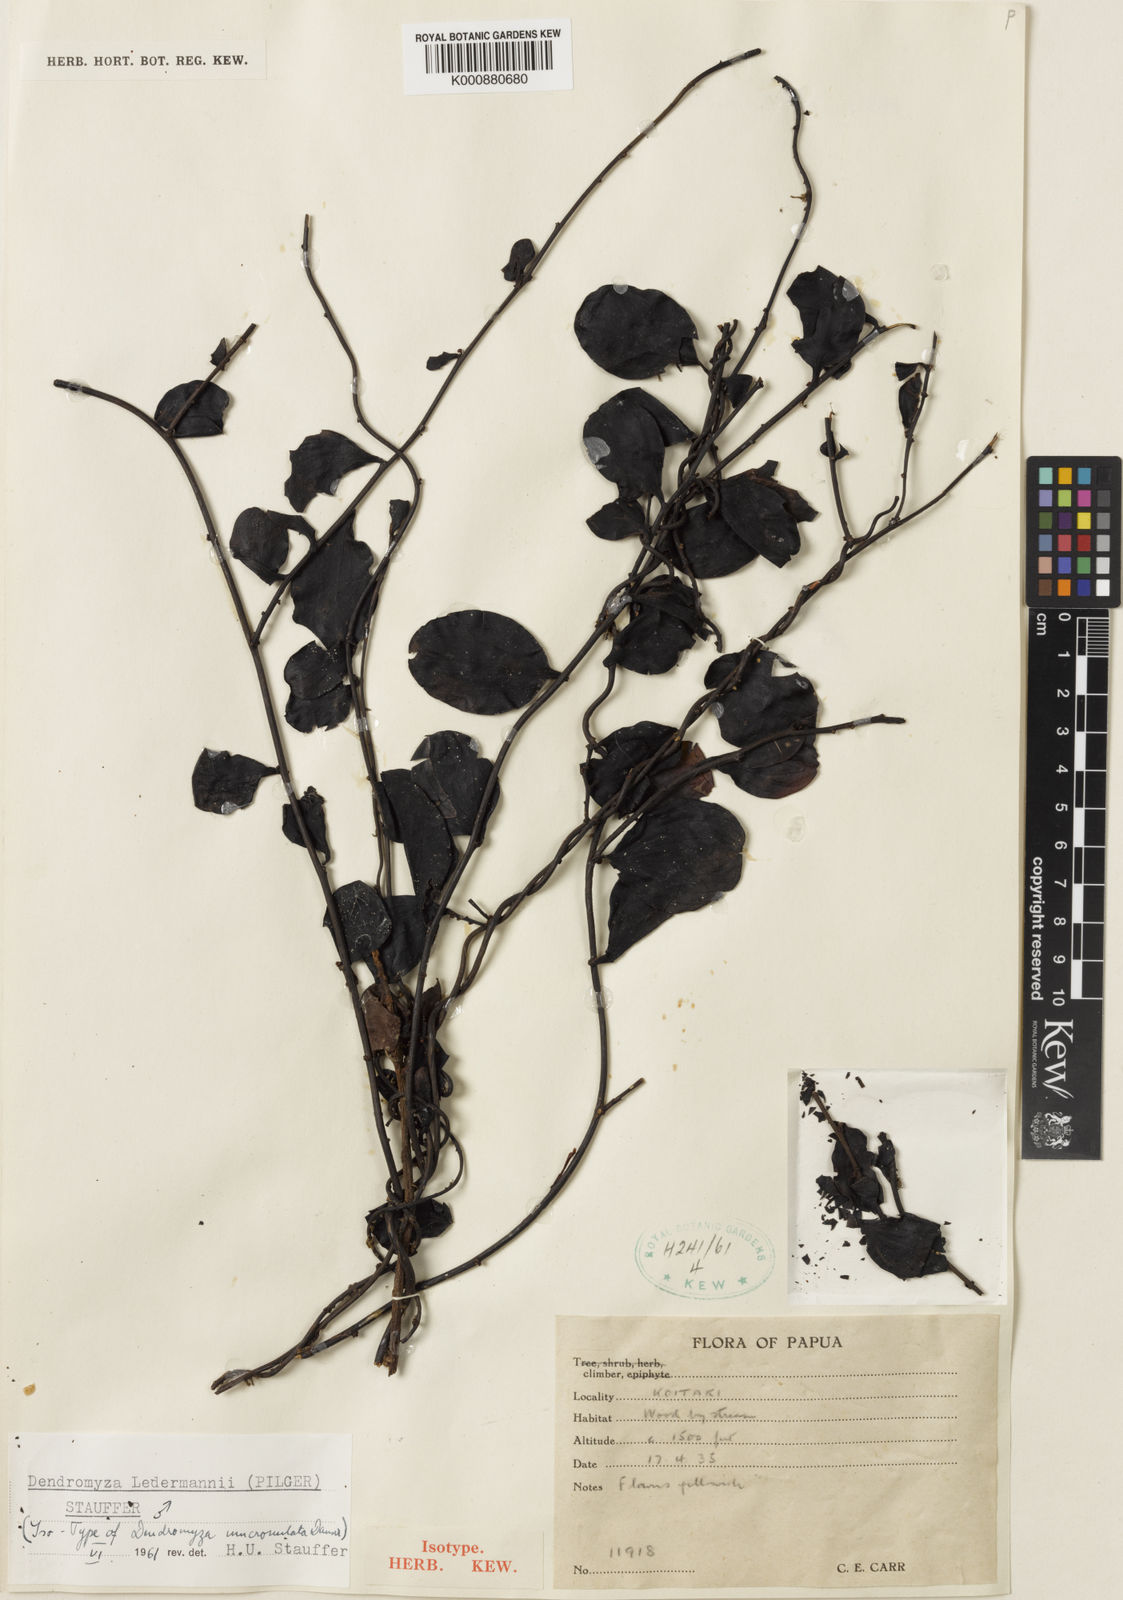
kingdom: Plantae
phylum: Tracheophyta
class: Magnoliopsida
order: Santalales
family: Amphorogynaceae
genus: Dendromyza
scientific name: Dendromyza ledermannii
